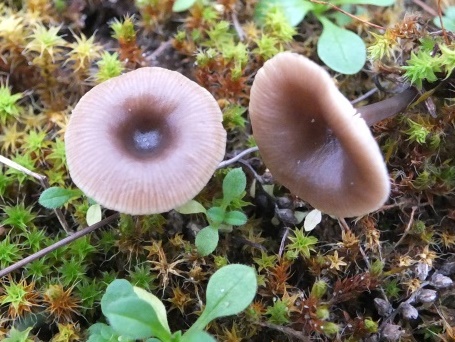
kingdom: Fungi
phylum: Basidiomycota
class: Agaricomycetes
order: Agaricales
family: Tricholomataceae
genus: Clitocybe
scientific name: Clitocybe barbularum
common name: klit-tragthat
